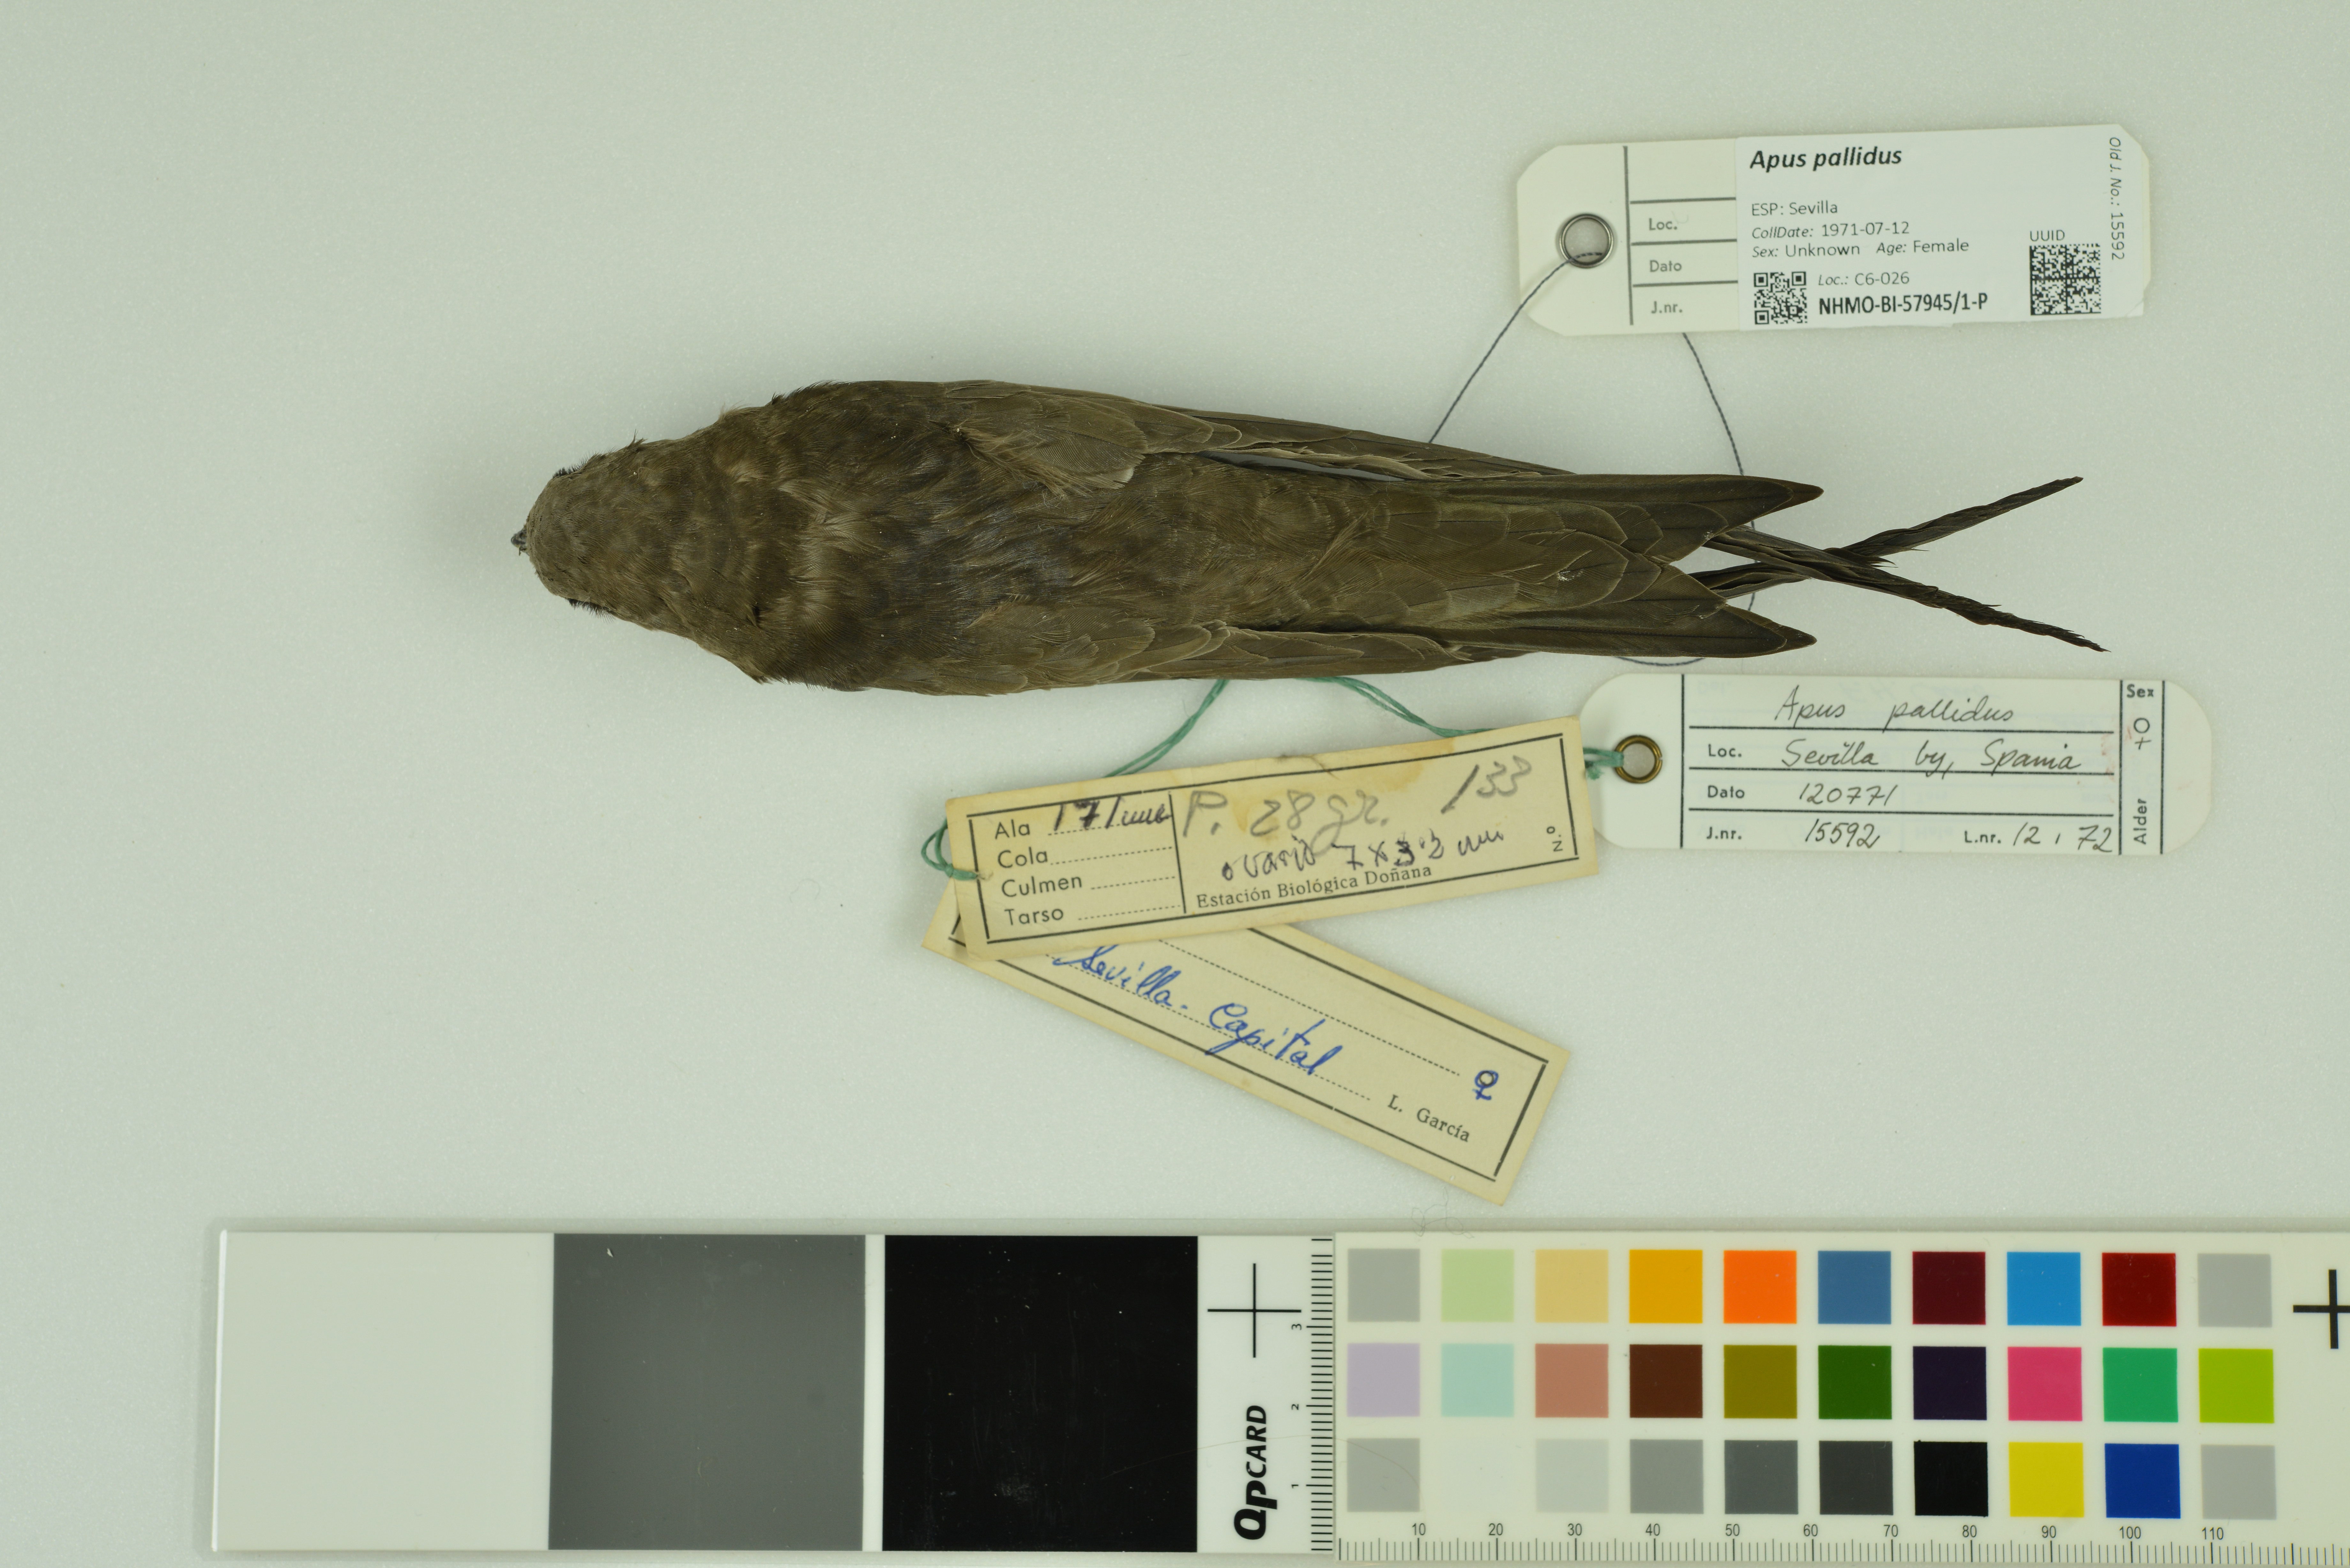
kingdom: Animalia
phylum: Chordata
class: Aves
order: Apodiformes
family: Apodidae
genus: Apus
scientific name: Apus pallidus
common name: Pallid swift
